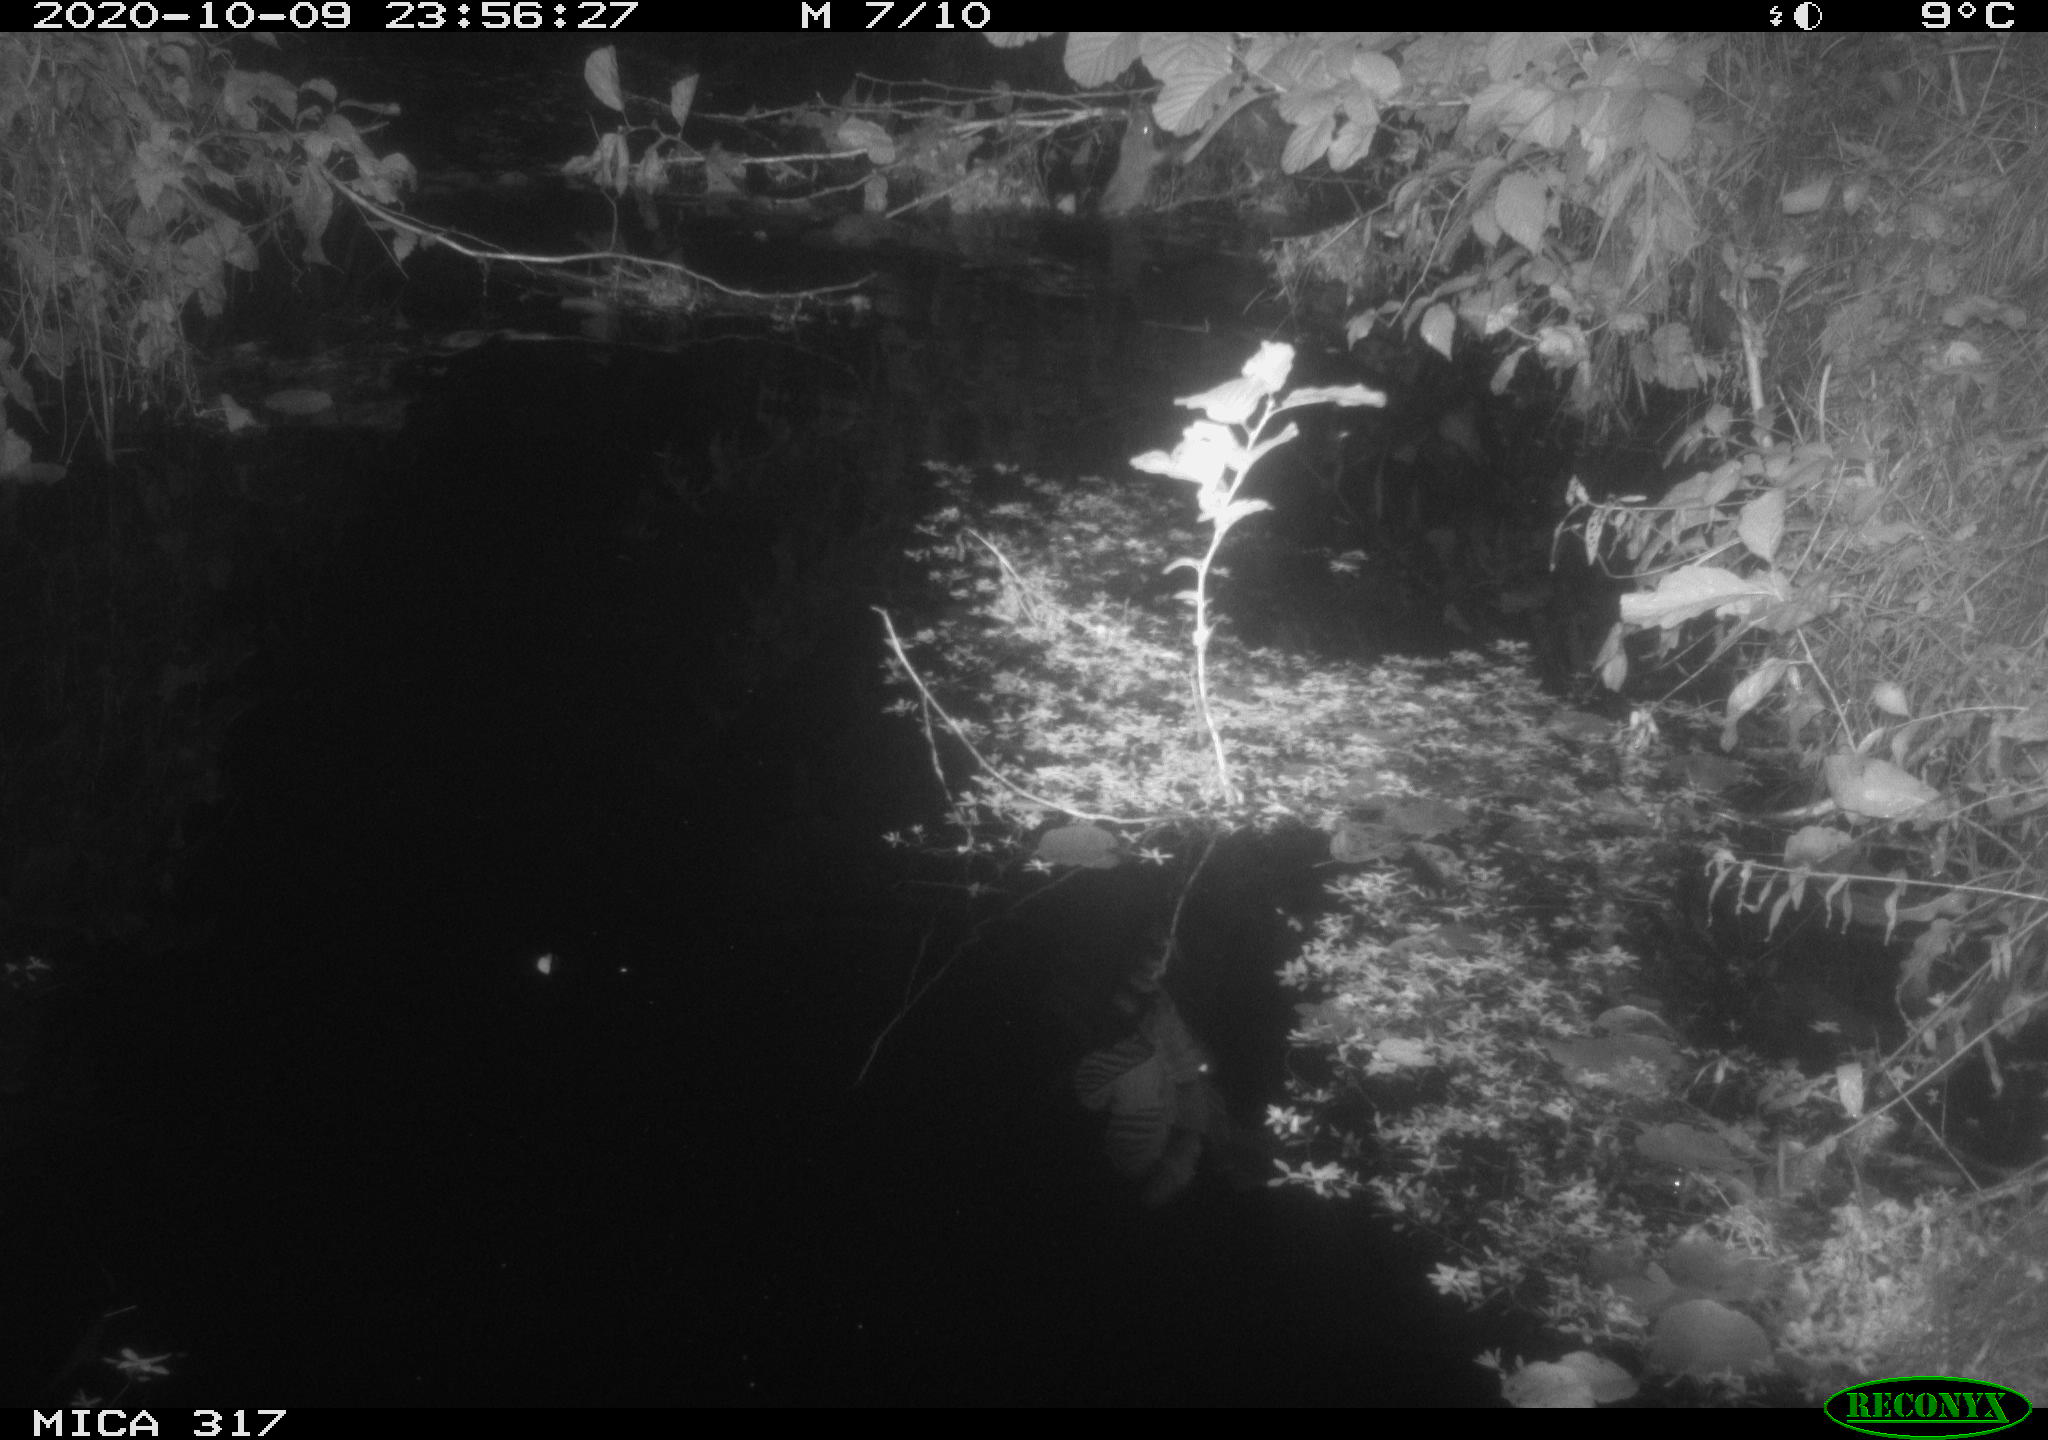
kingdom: Animalia
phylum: Chordata
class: Mammalia
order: Rodentia
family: Muridae
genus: Rattus
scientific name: Rattus norvegicus
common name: Brown rat
